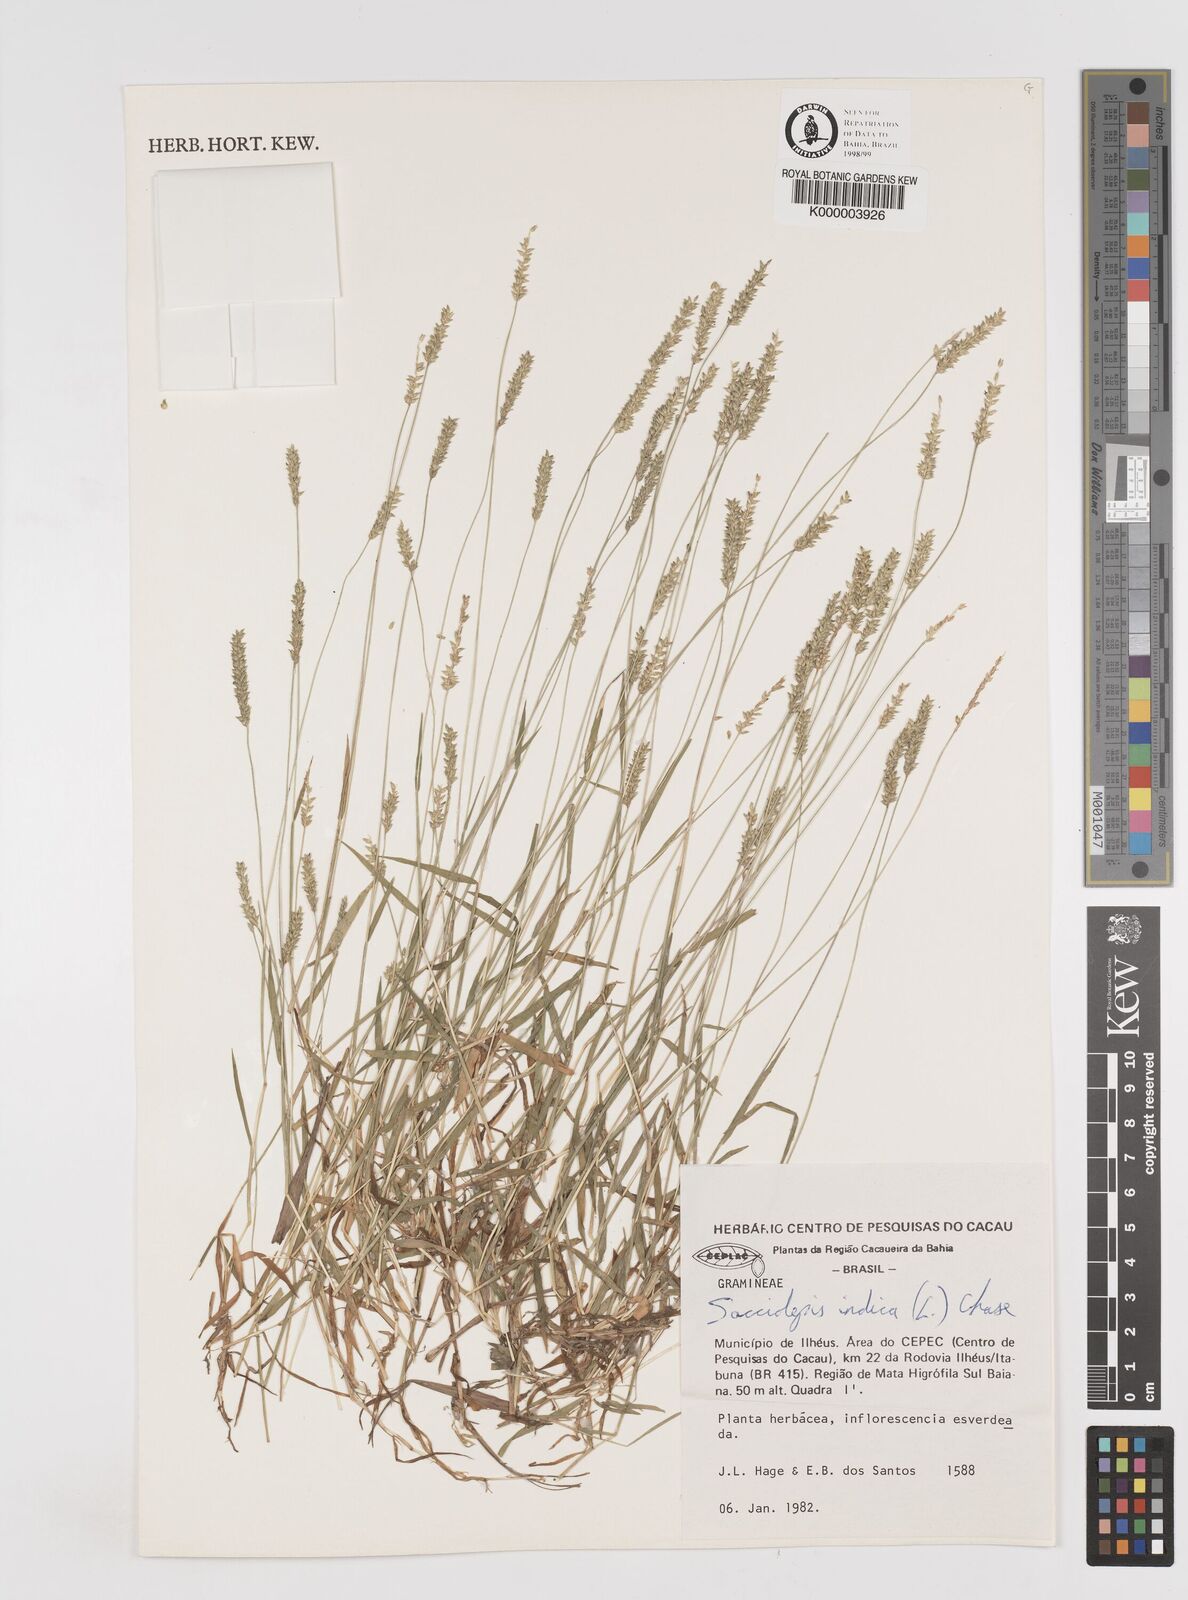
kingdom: Plantae
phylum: Tracheophyta
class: Liliopsida
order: Poales
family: Poaceae
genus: Sacciolepis
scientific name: Sacciolepis indica
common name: Glenwoodgrass
